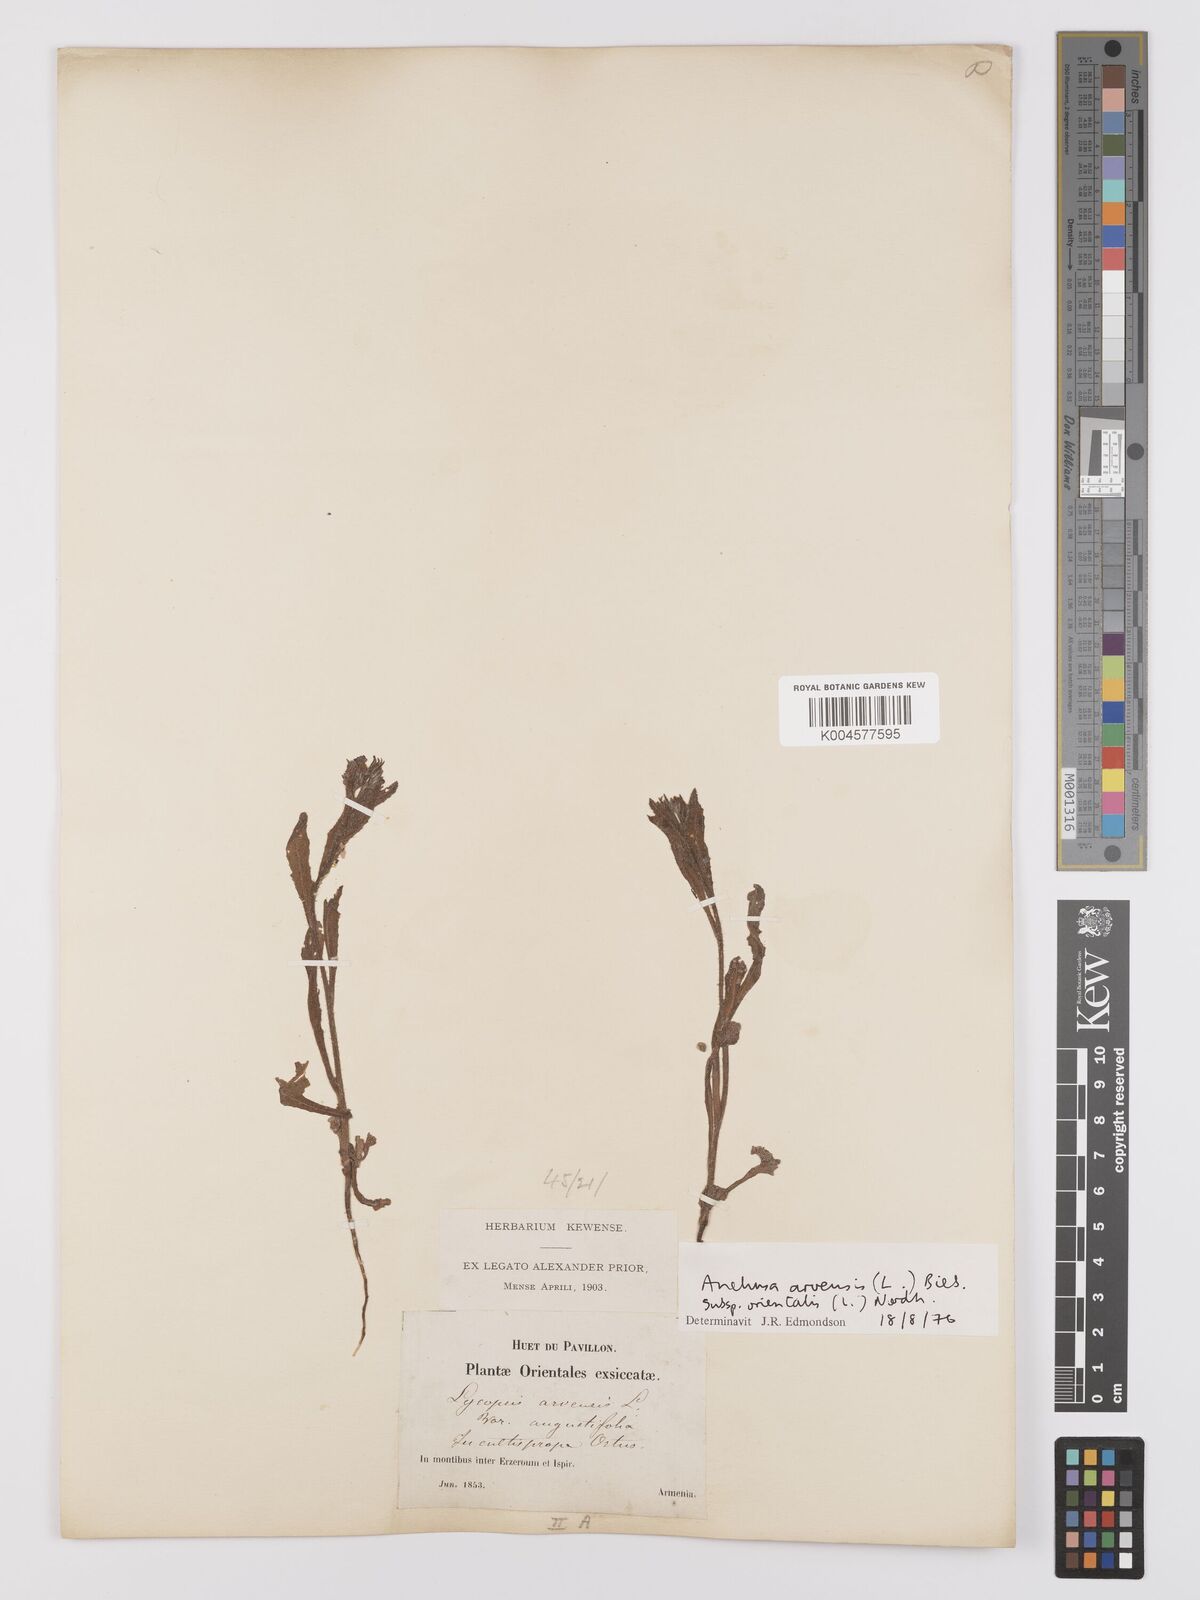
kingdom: Plantae
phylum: Tracheophyta
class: Magnoliopsida
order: Boraginales
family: Boraginaceae
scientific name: Boraginaceae
